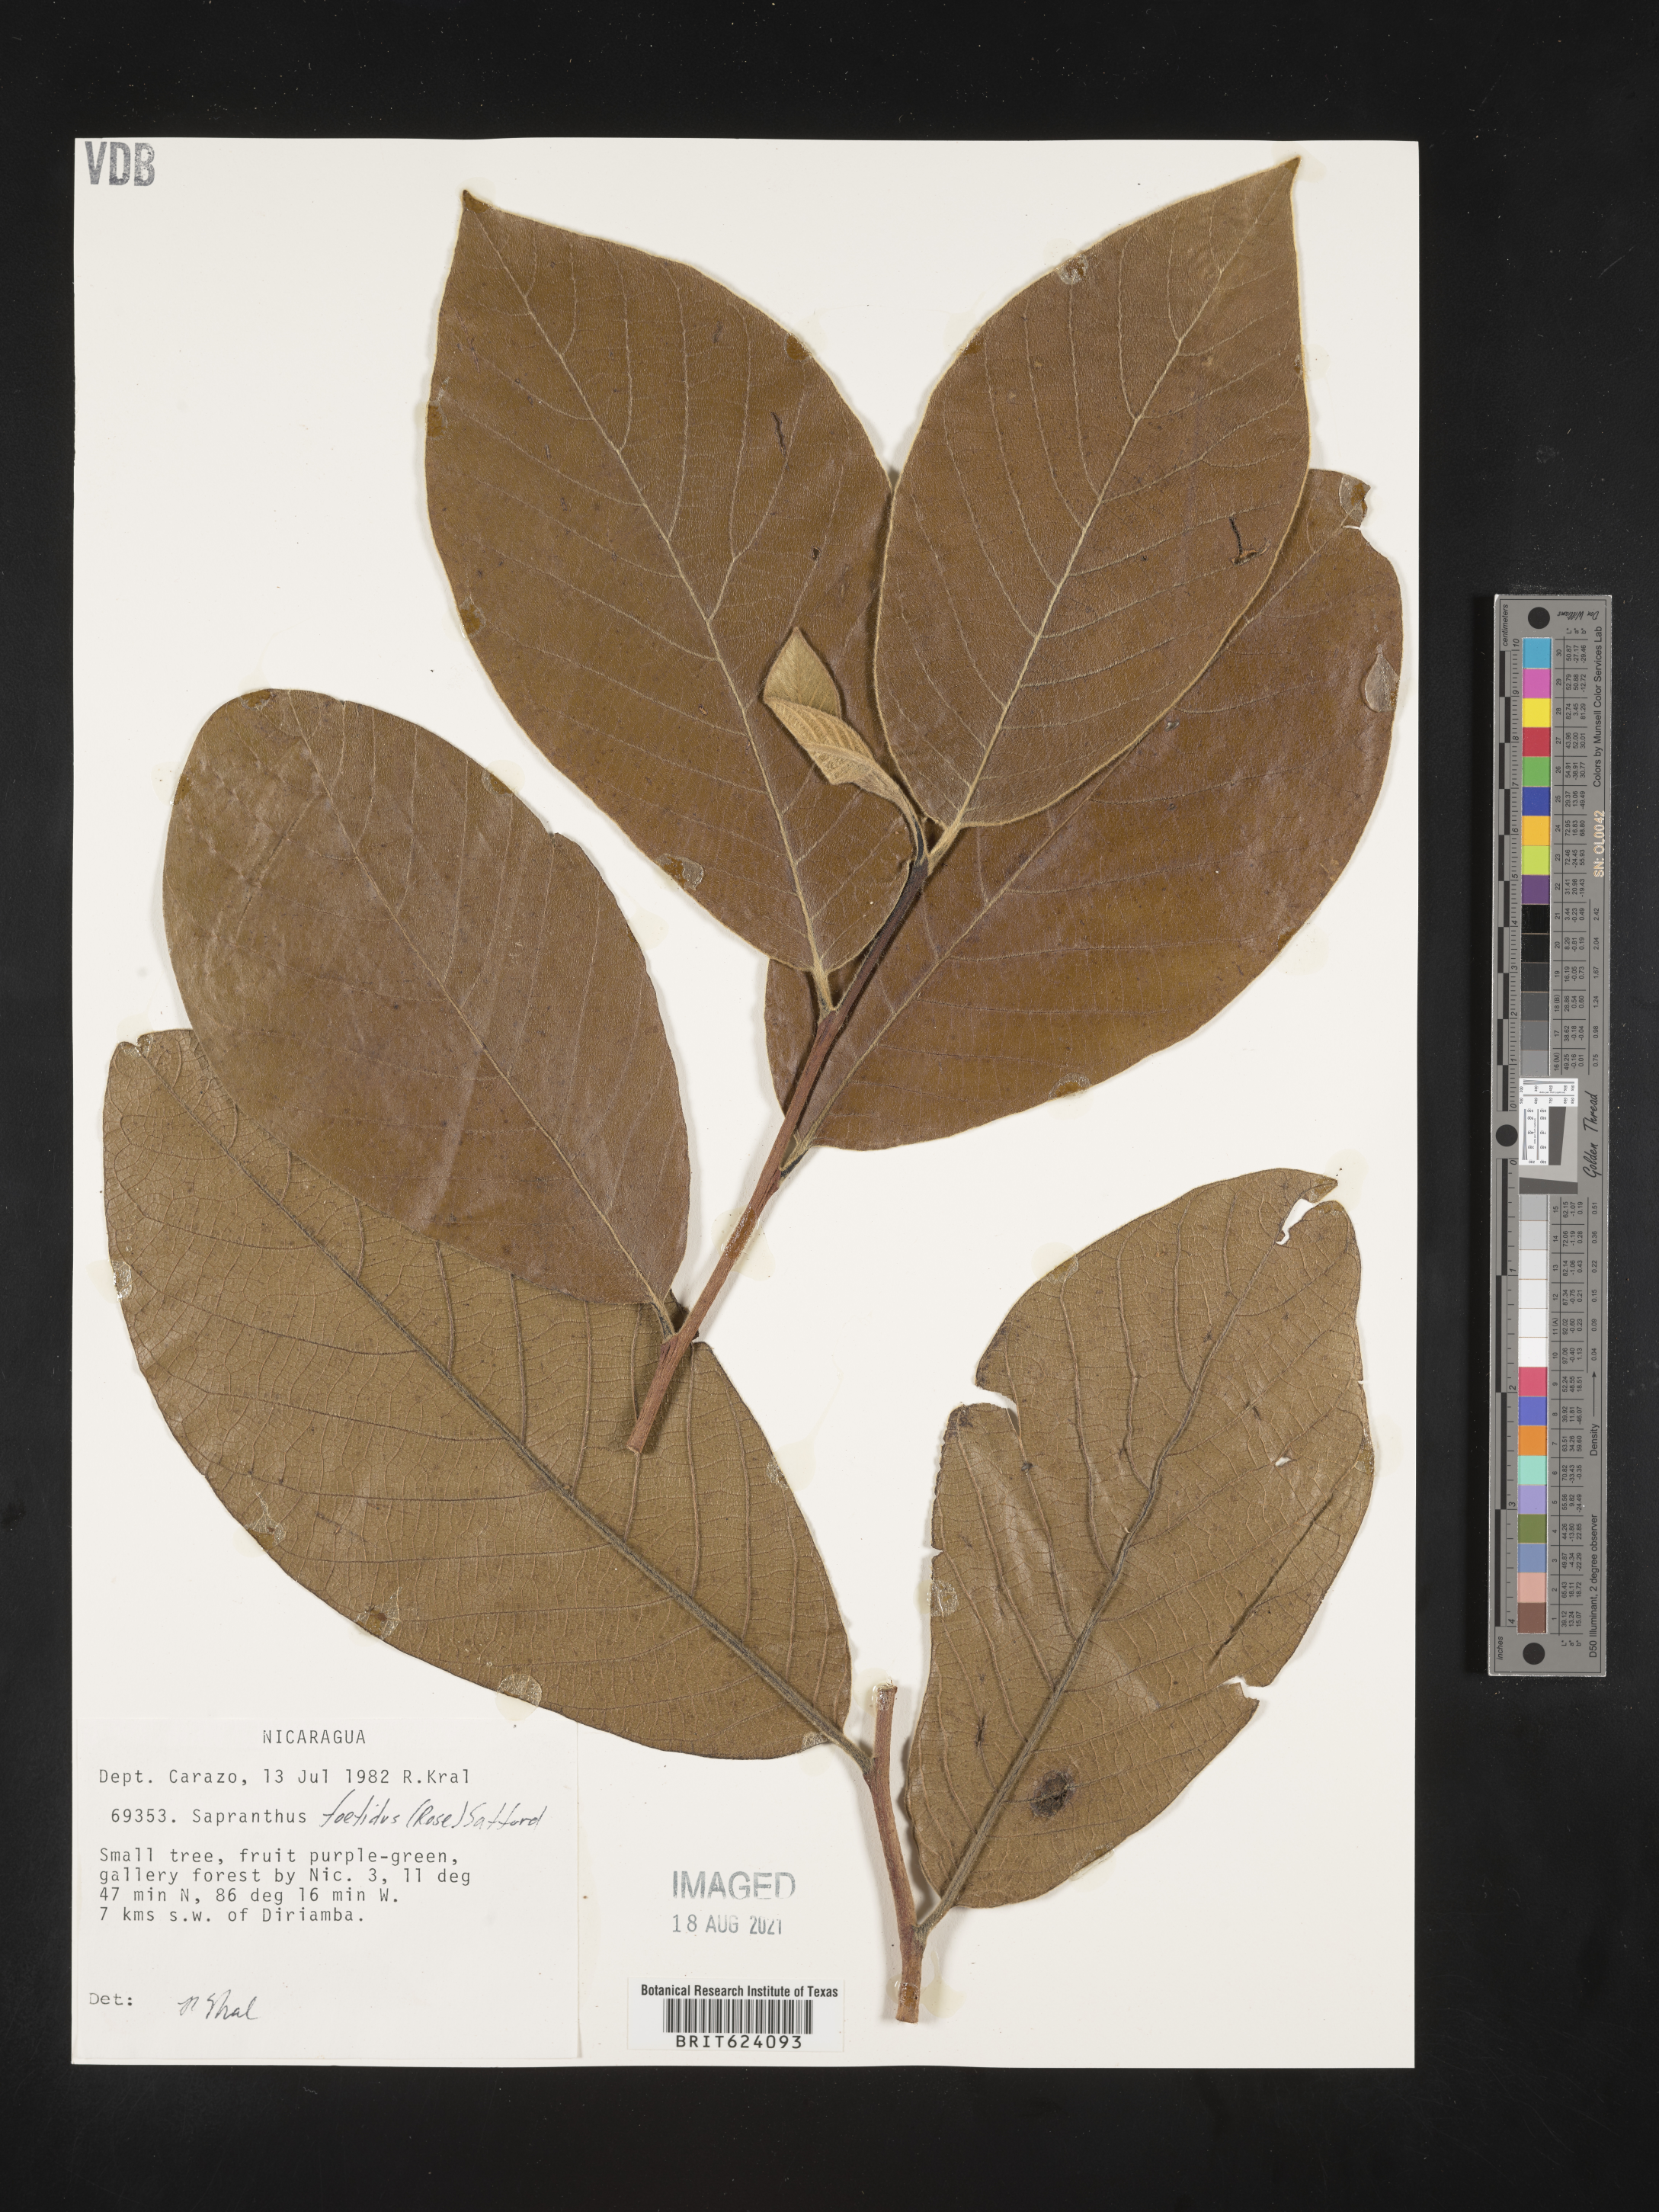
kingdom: Plantae
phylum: Tracheophyta
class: Magnoliopsida
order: Magnoliales
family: Annonaceae
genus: Sapranthus
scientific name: Sapranthus violaceus
